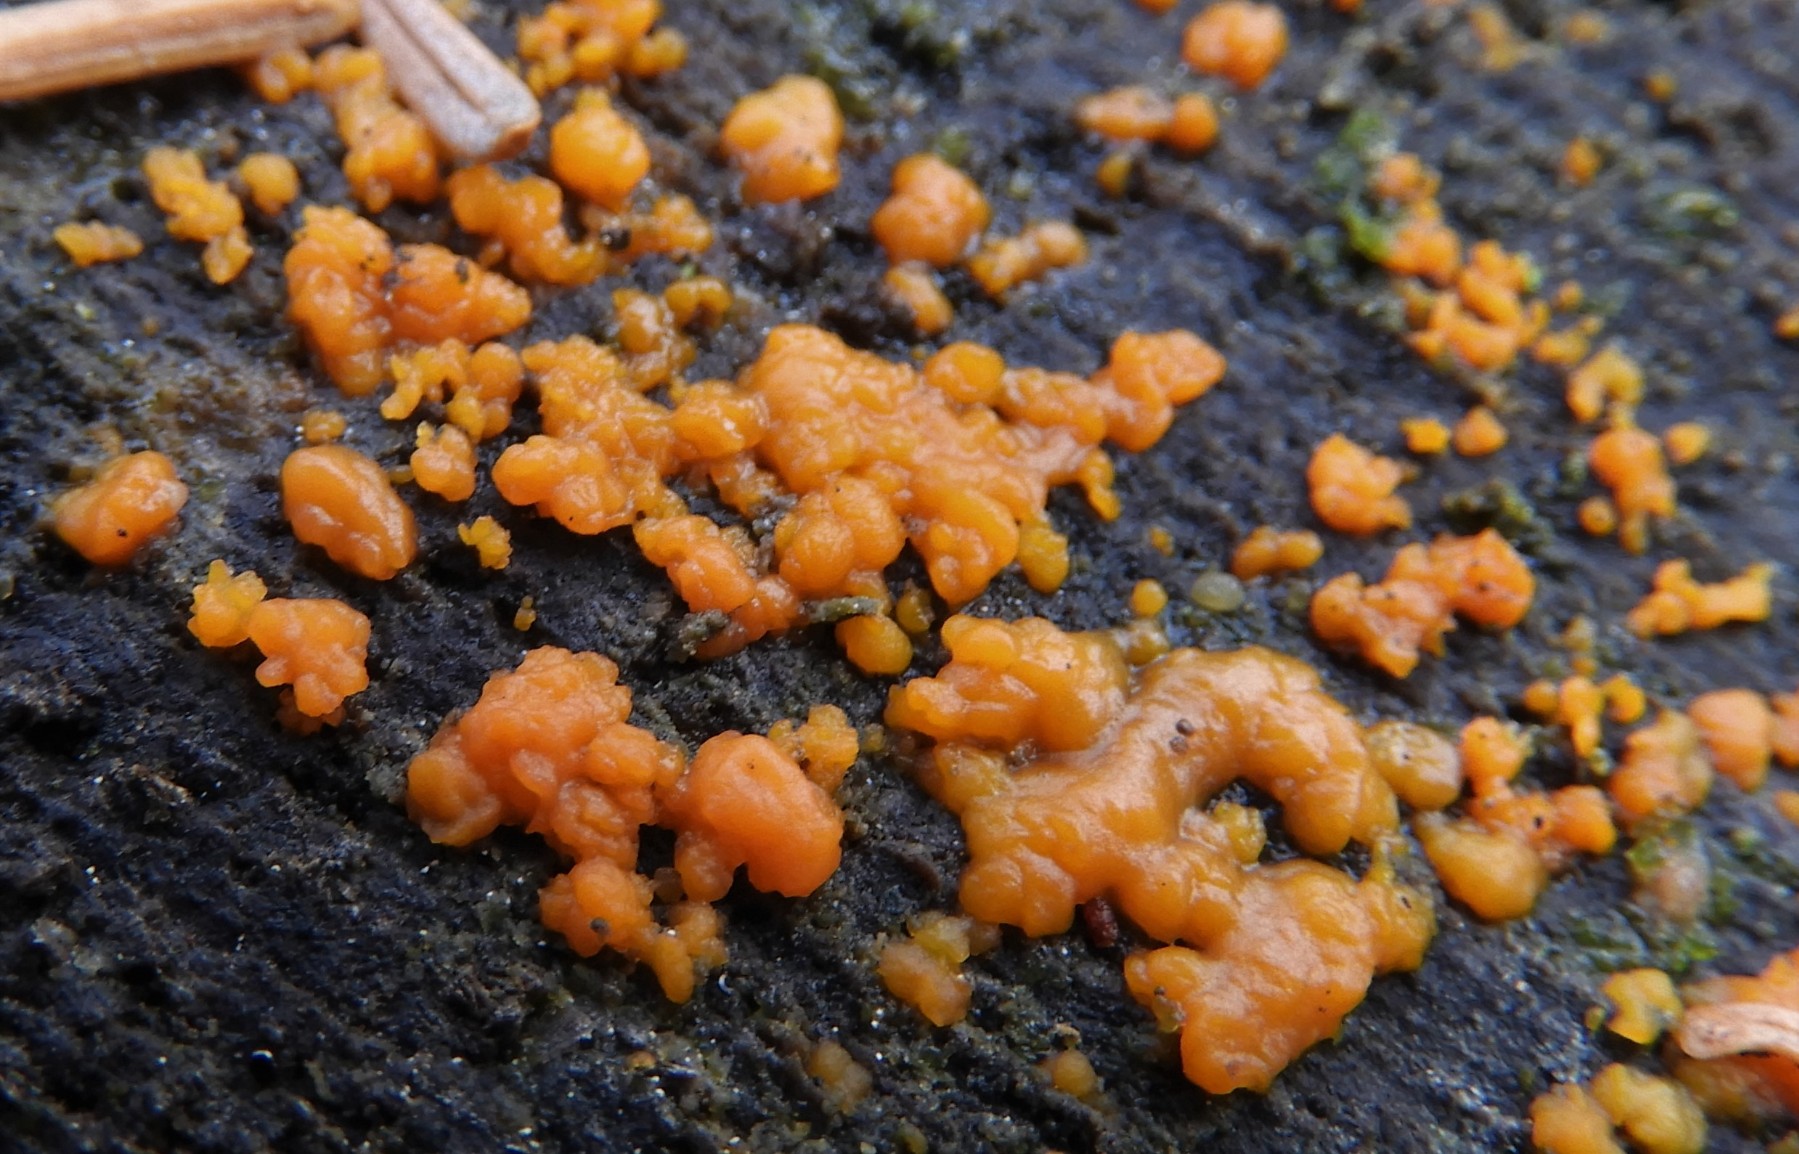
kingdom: Fungi
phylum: Basidiomycota
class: Dacrymycetes
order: Dacrymycetales
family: Dacrymycetaceae
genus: Dacrymyces
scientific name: Dacrymyces stillatus
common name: almindelig tåresvamp
